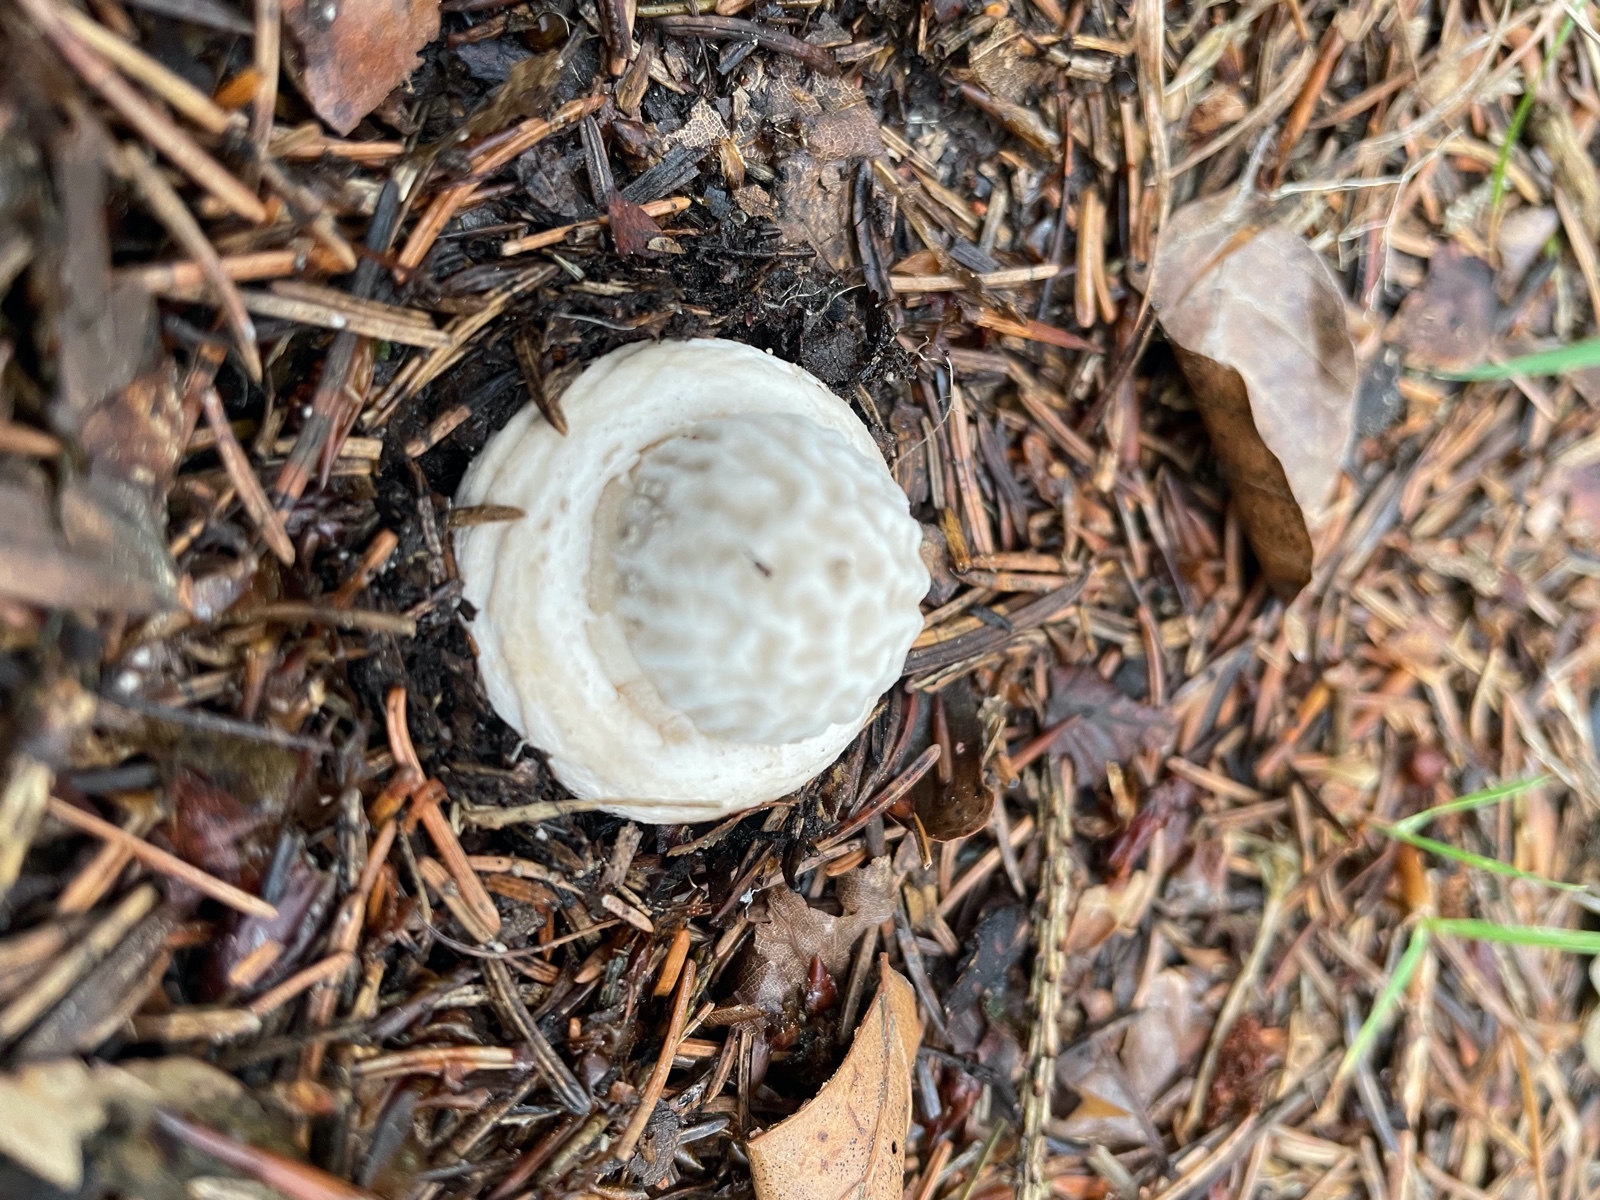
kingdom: Fungi
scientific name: Fungi
